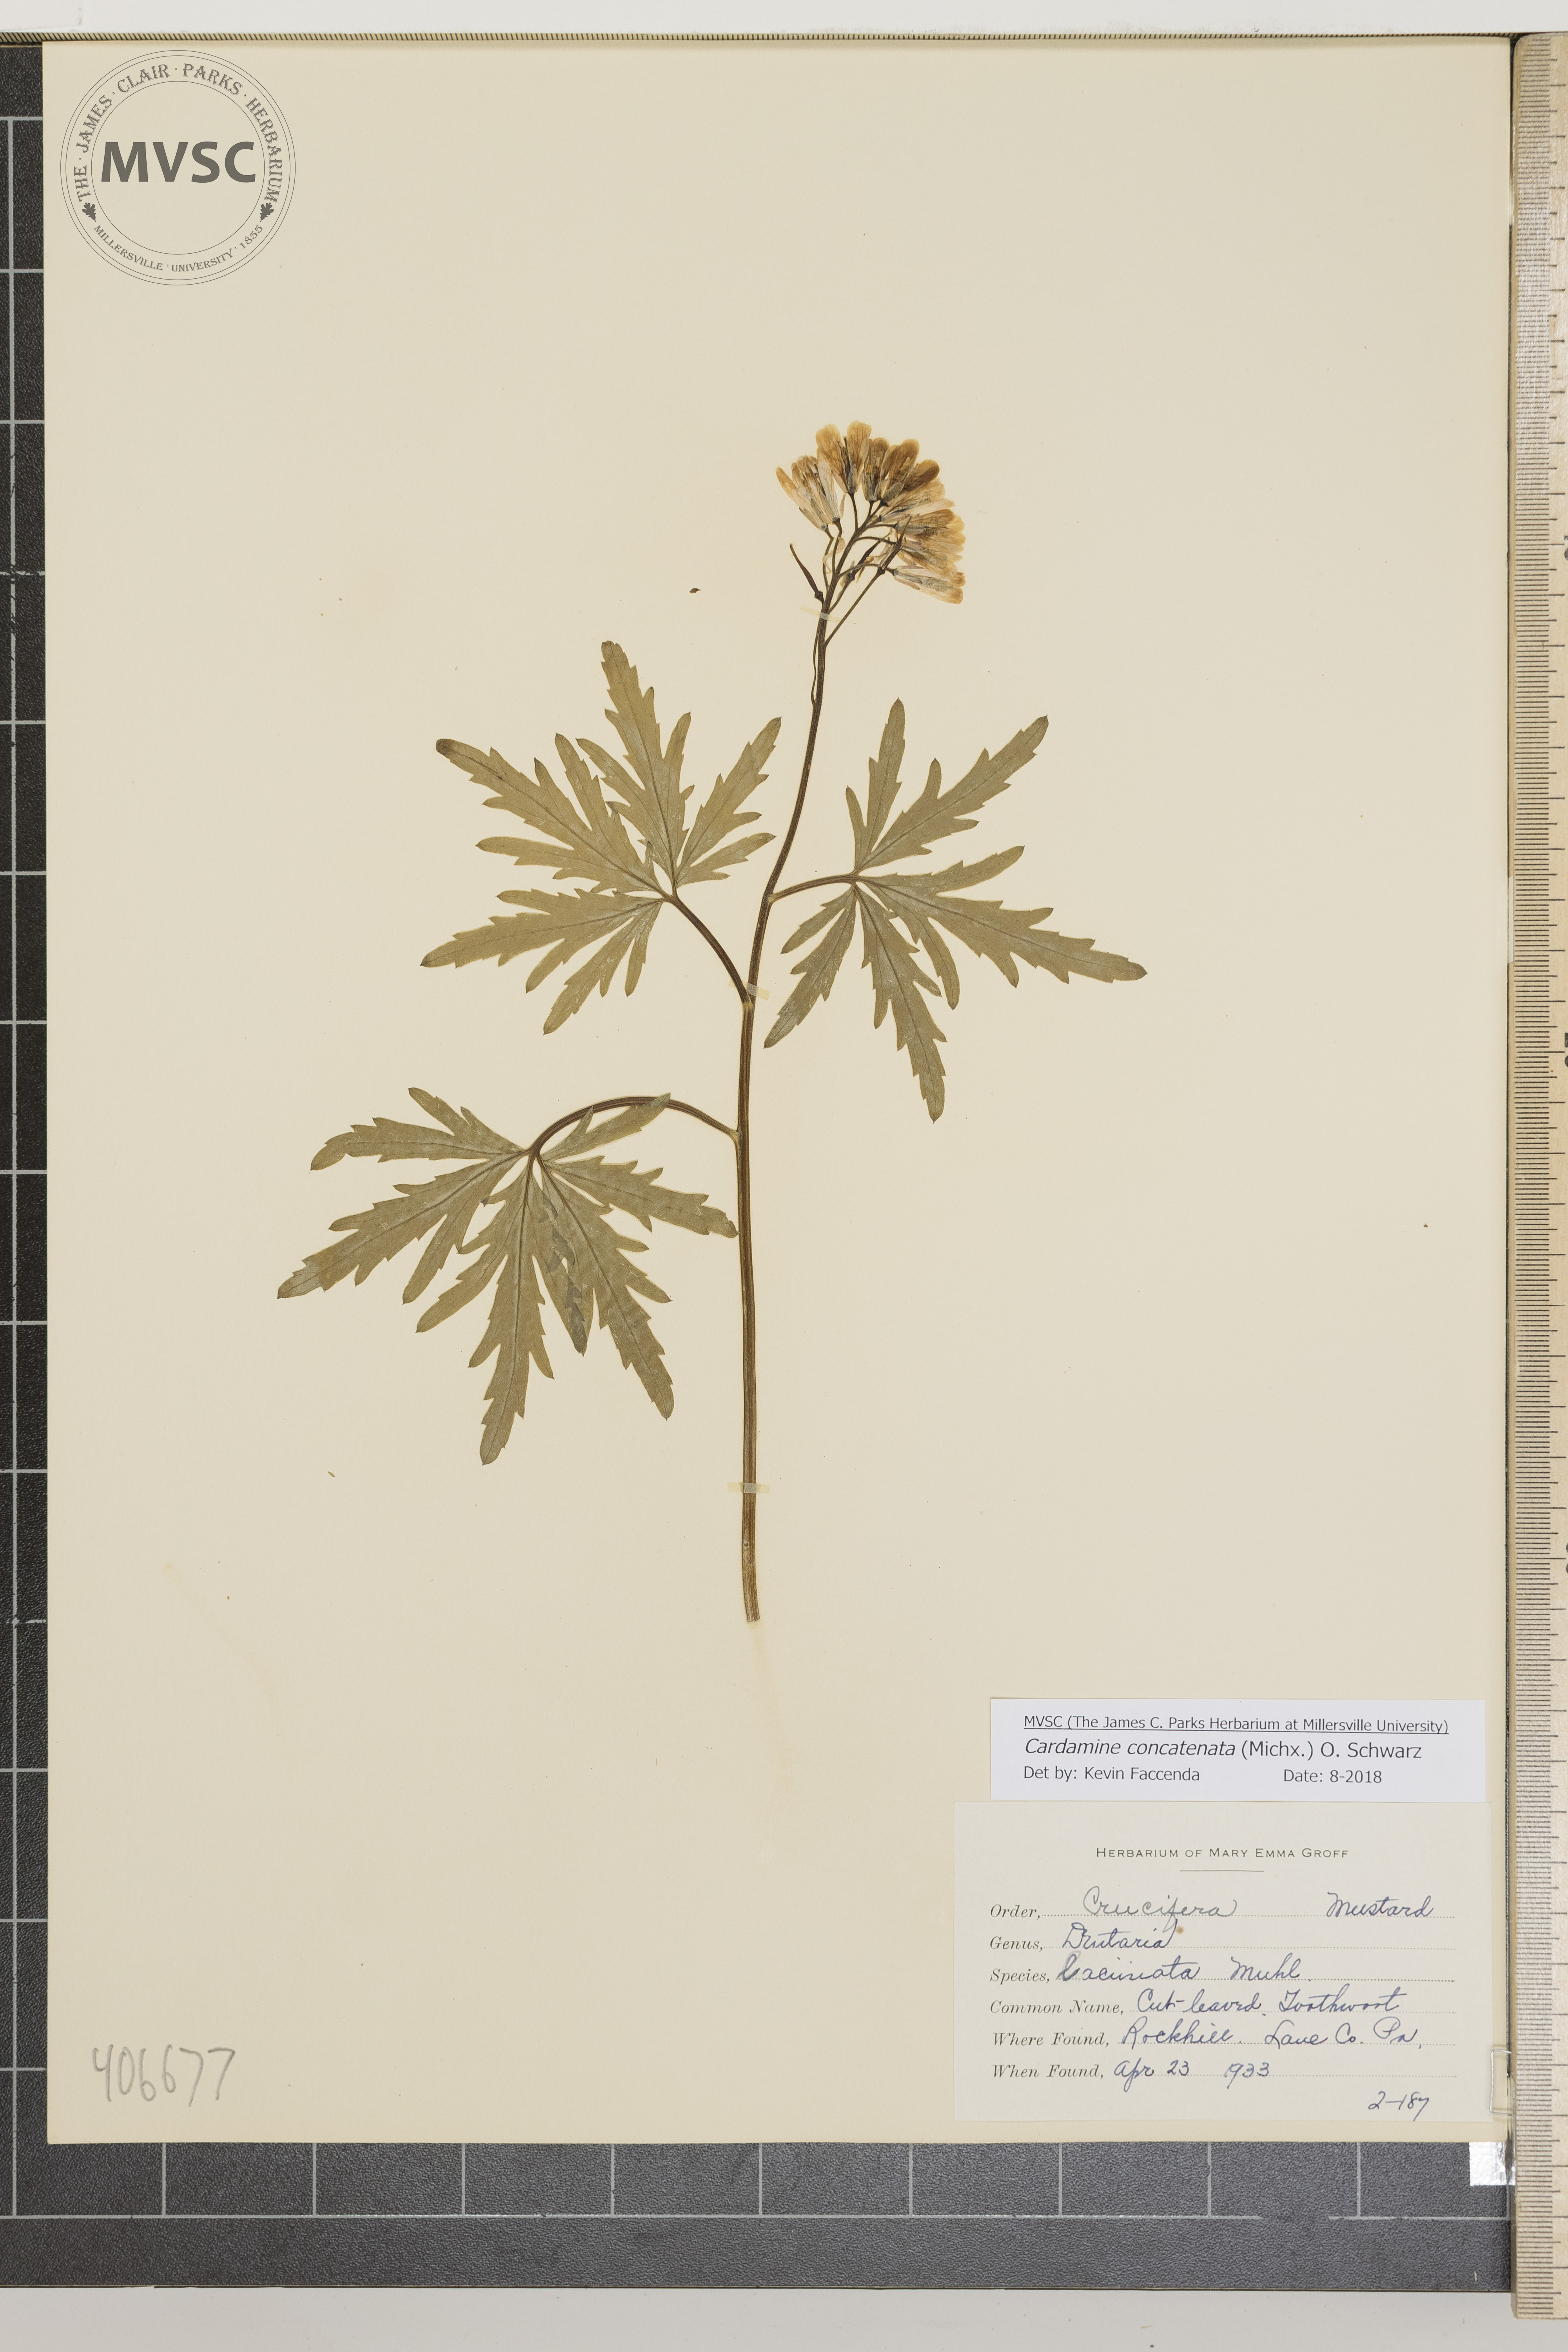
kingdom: Plantae
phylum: Tracheophyta
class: Magnoliopsida
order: Brassicales
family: Brassicaceae
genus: Cardamine
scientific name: Cardamine concatenata
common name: Cut-leaved Toothwort
